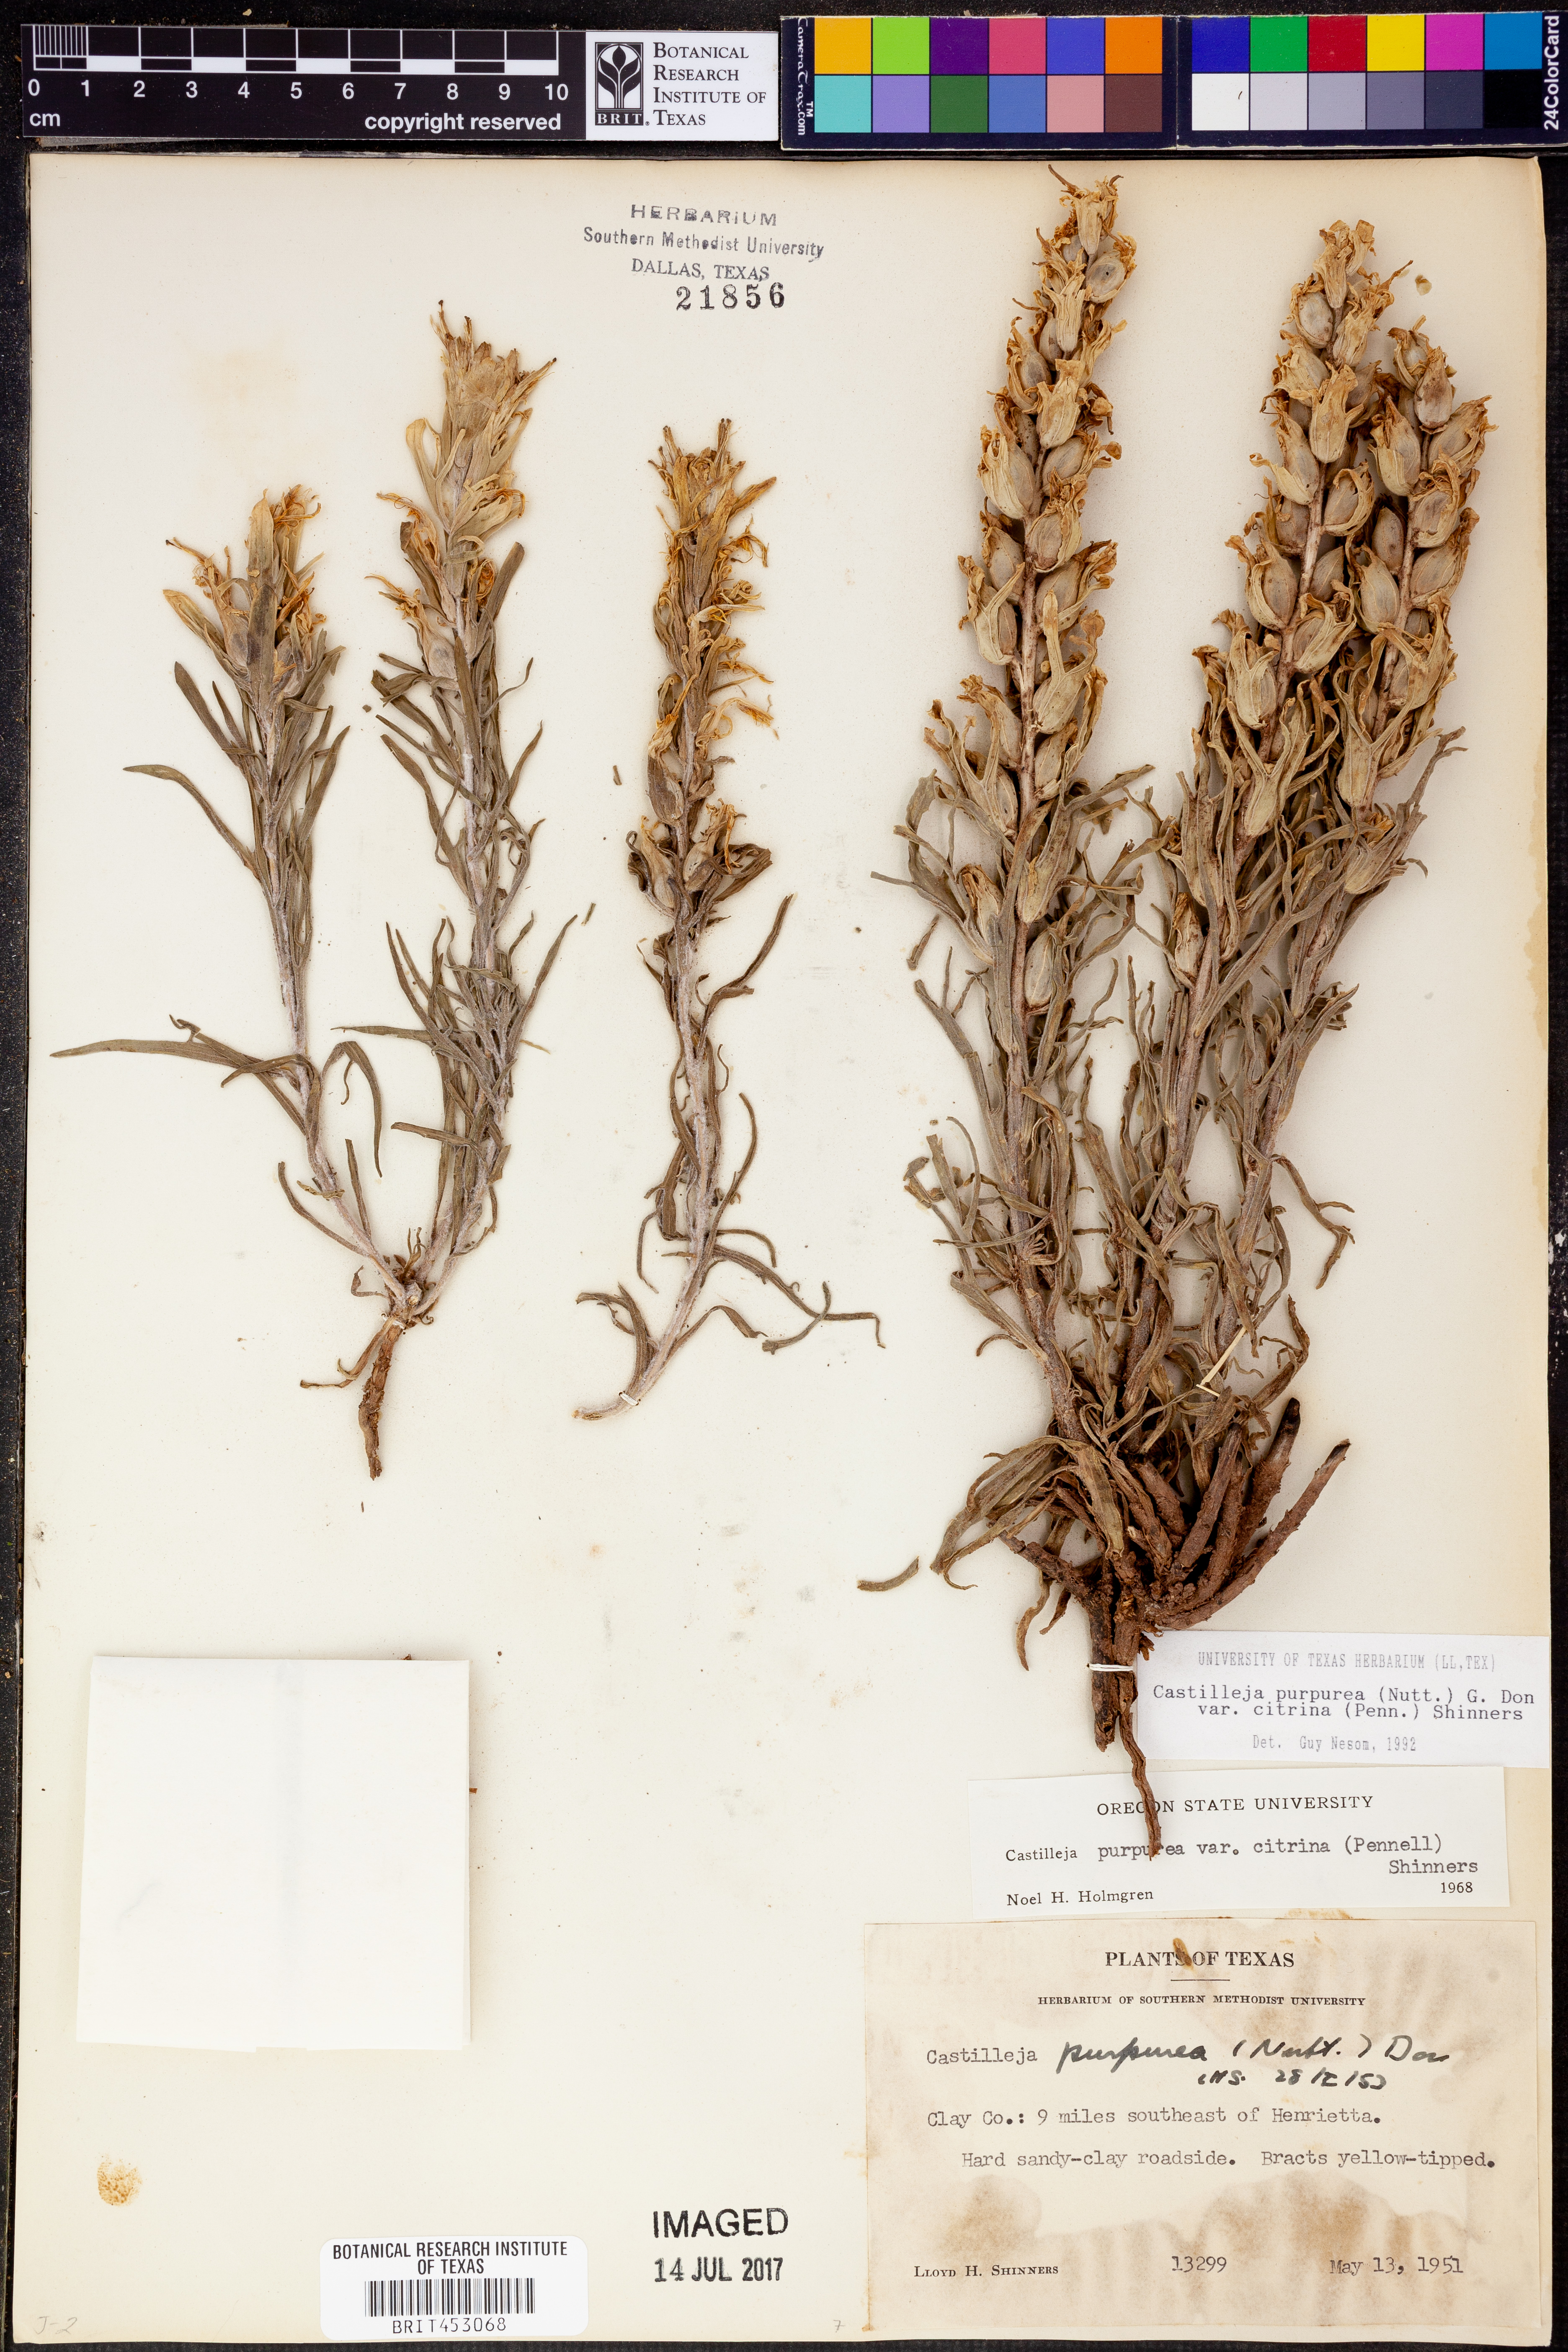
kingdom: Plantae
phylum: Tracheophyta
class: Magnoliopsida
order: Lamiales
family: Orobanchaceae
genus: Castilleja
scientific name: Castilleja citrina
